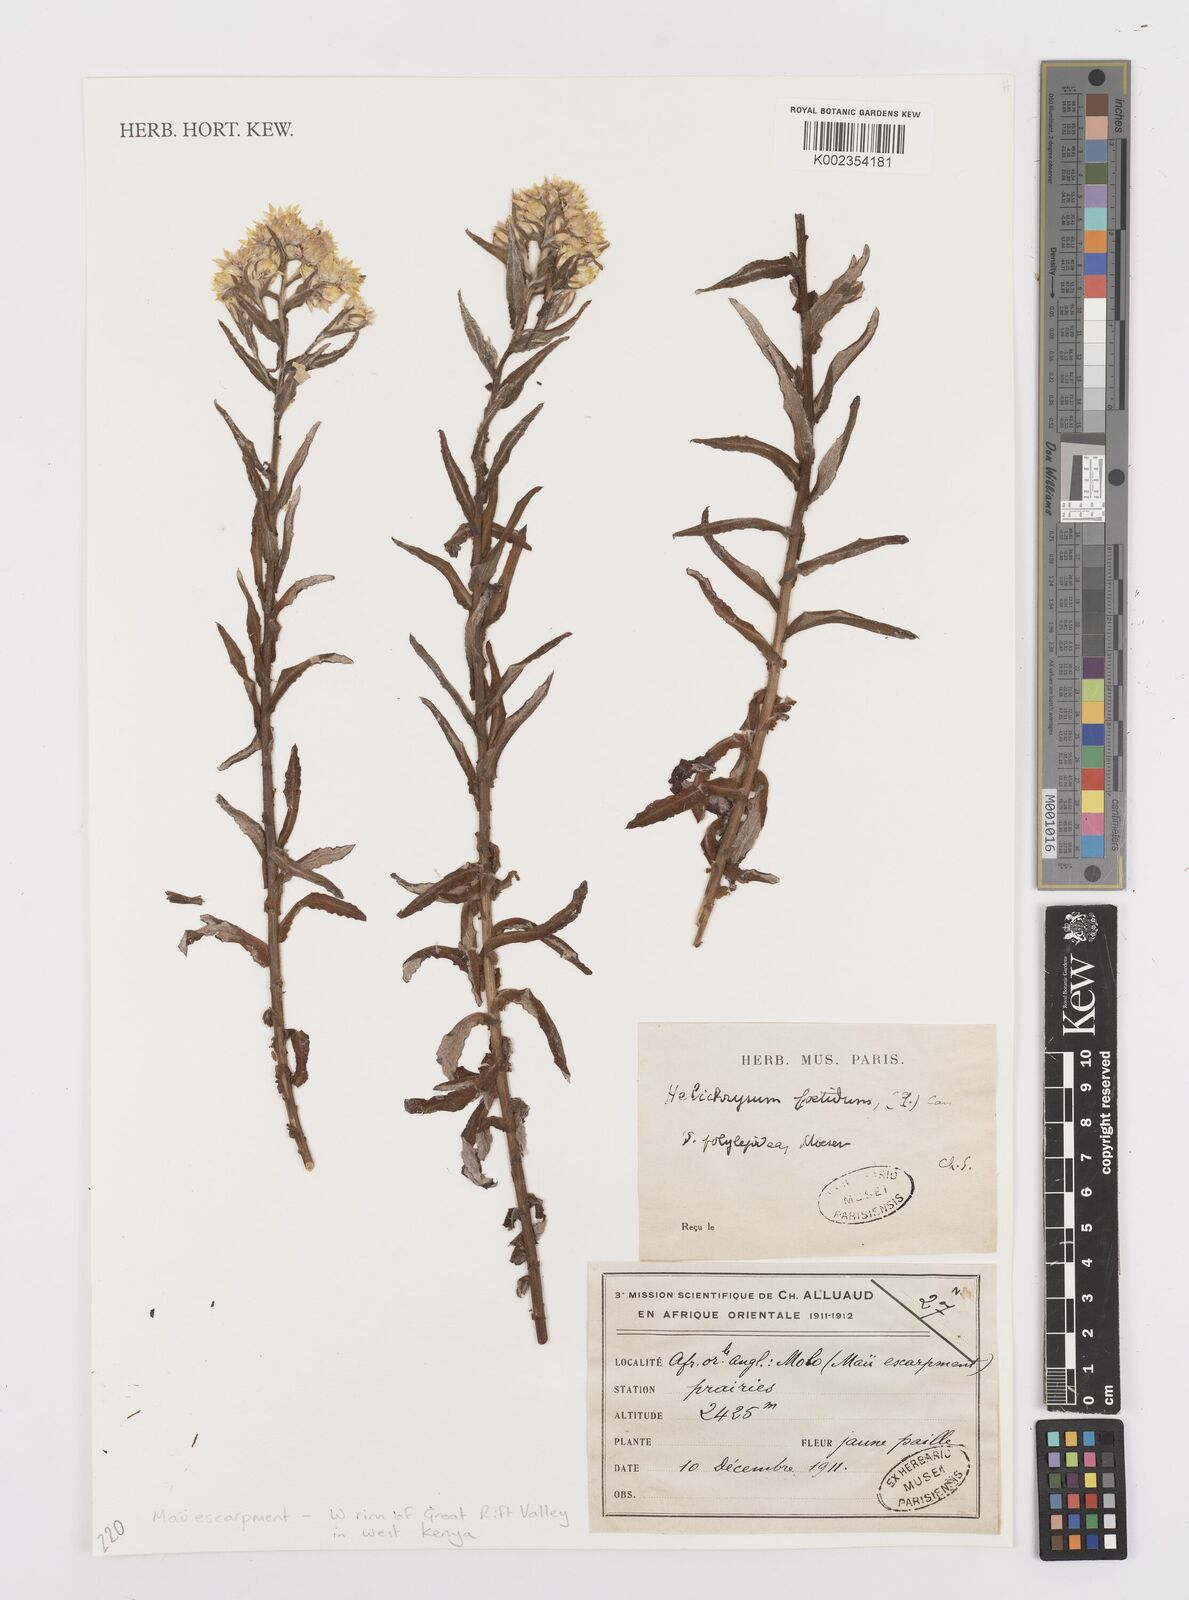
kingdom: Plantae
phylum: Tracheophyta
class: Magnoliopsida
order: Asterales
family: Asteraceae
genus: Helichrysum
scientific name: Helichrysum foetidum
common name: Stinking everlasting
